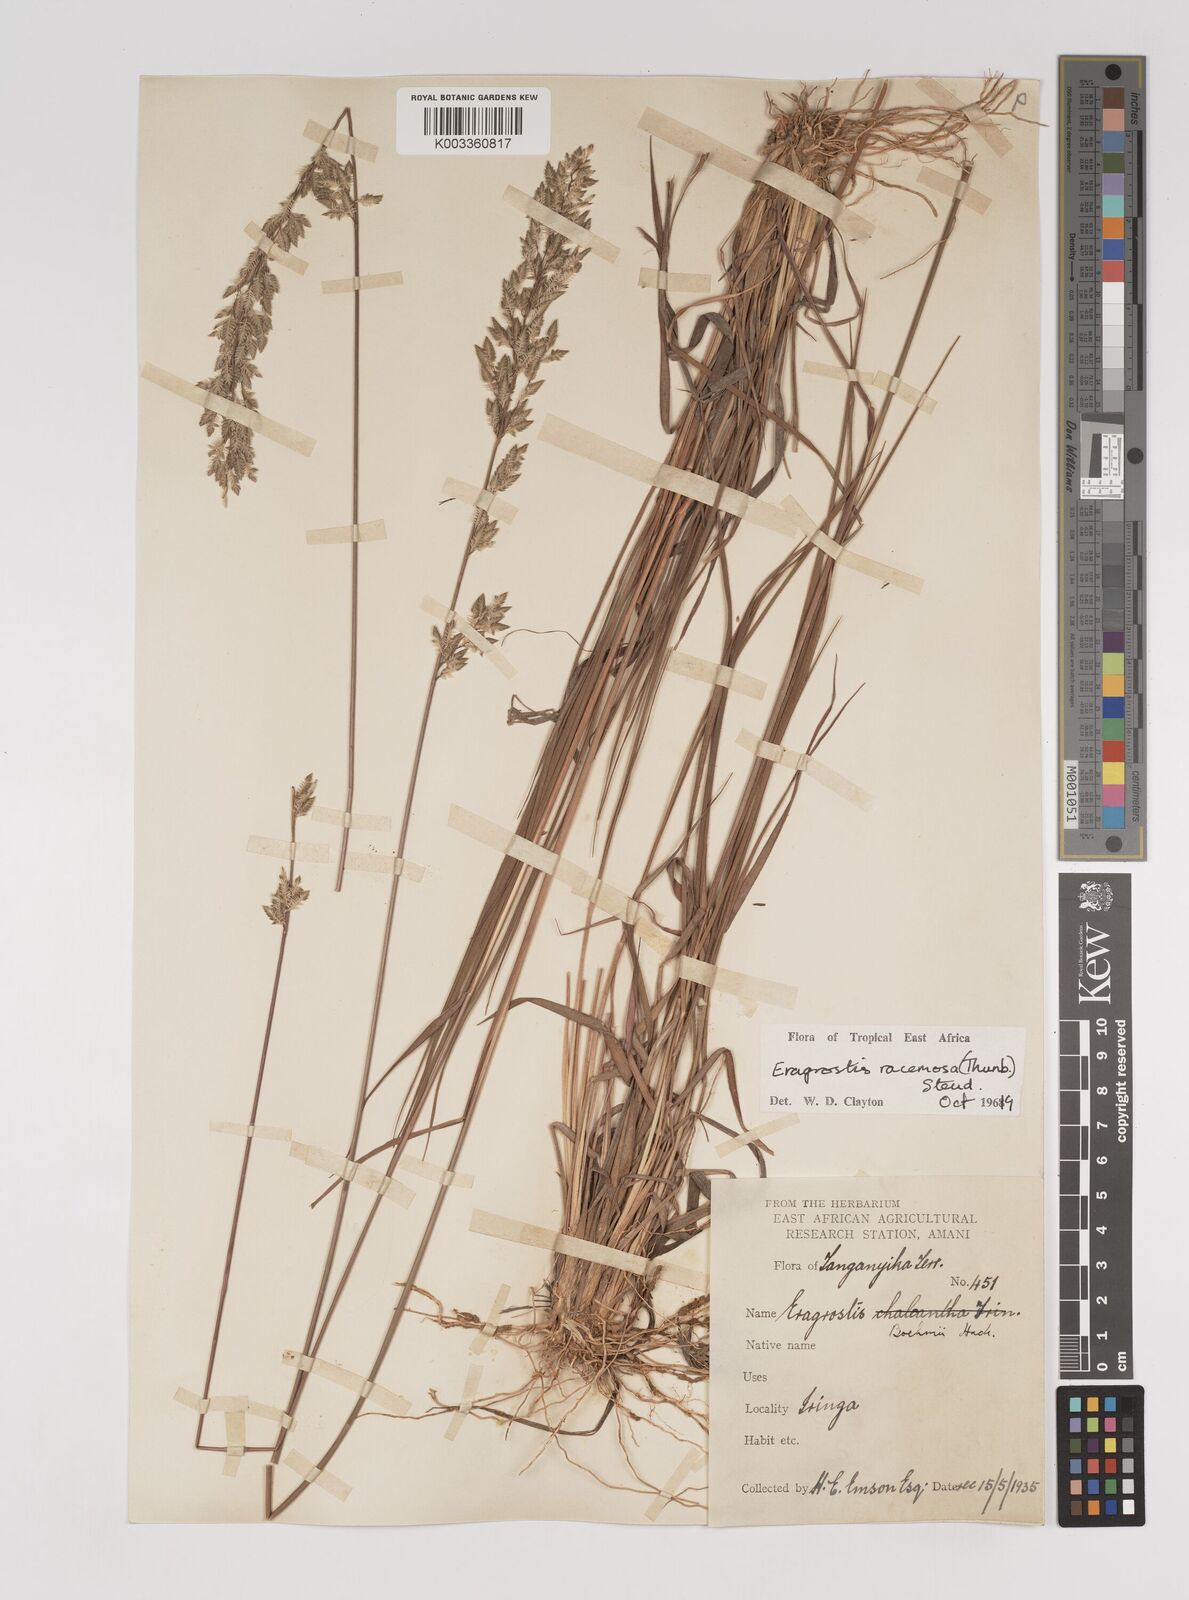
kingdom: Plantae
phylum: Tracheophyta
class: Liliopsida
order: Poales
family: Poaceae
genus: Eragrostis
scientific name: Eragrostis racemosa
